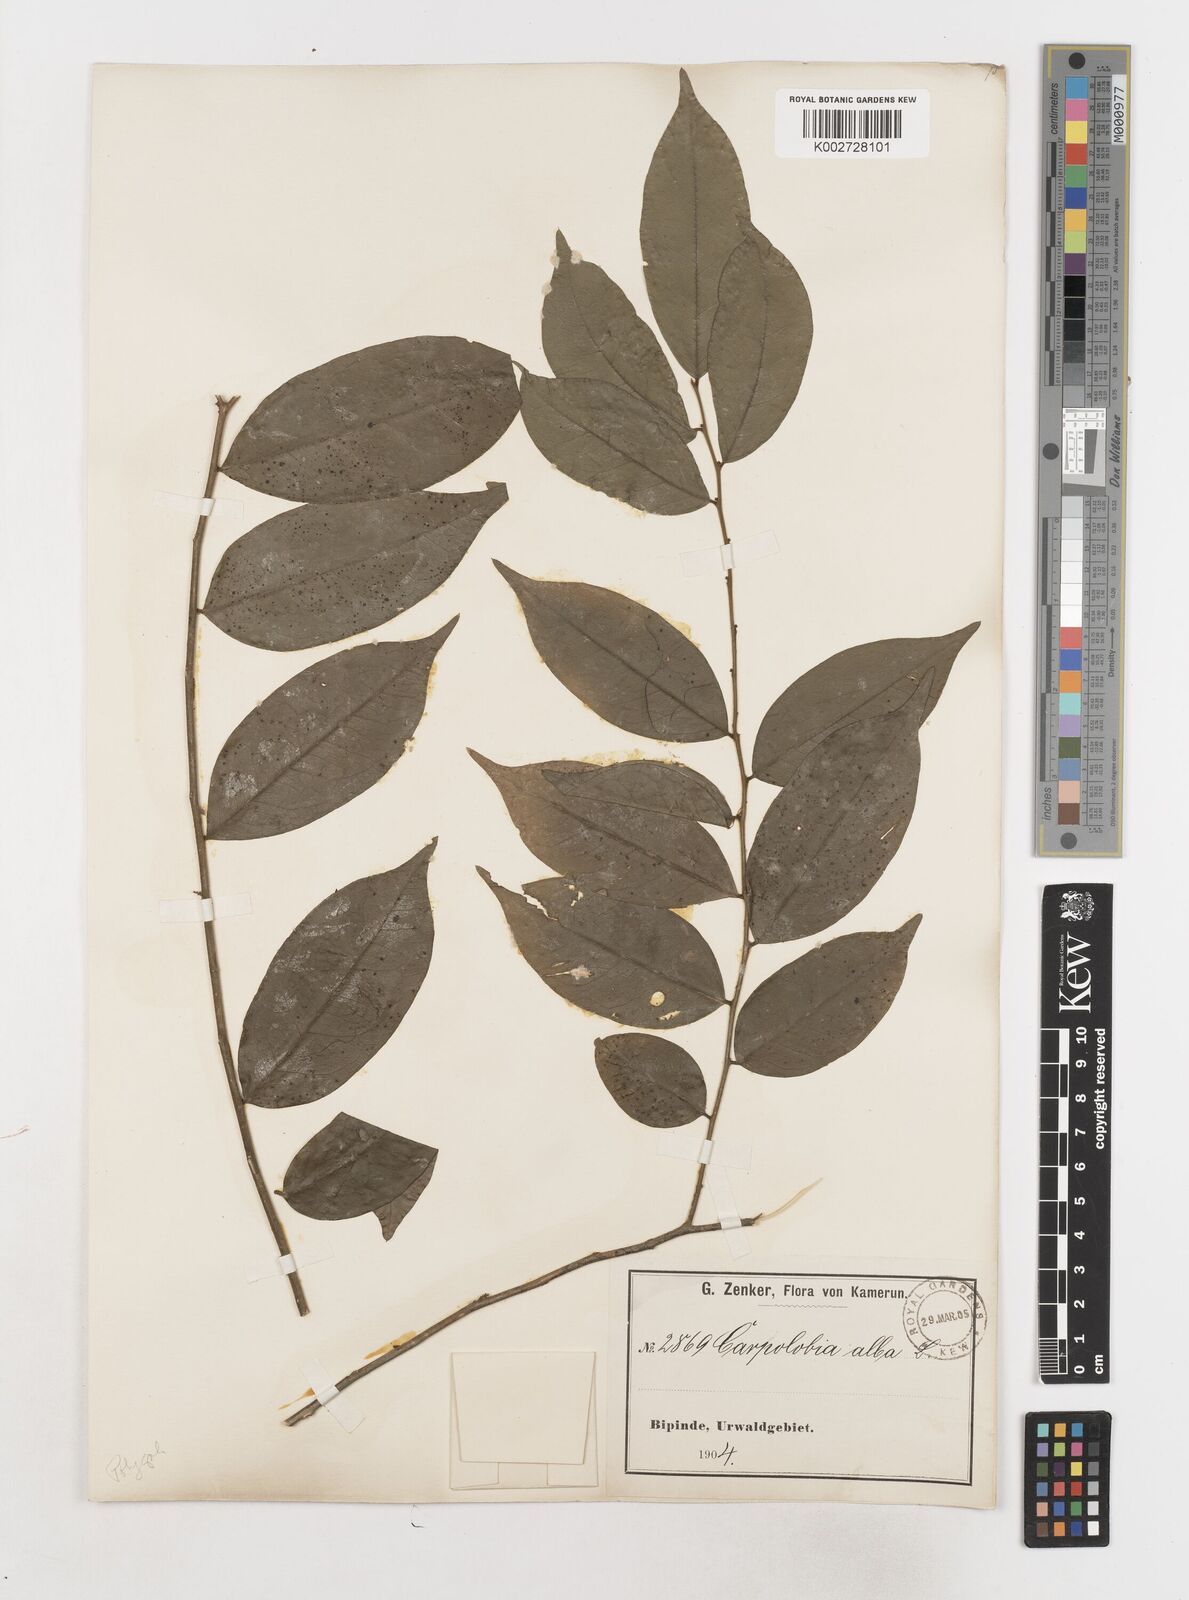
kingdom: Plantae
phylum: Tracheophyta
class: Magnoliopsida
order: Fabales
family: Polygalaceae
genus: Carpolobia
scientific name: Carpolobia alba
